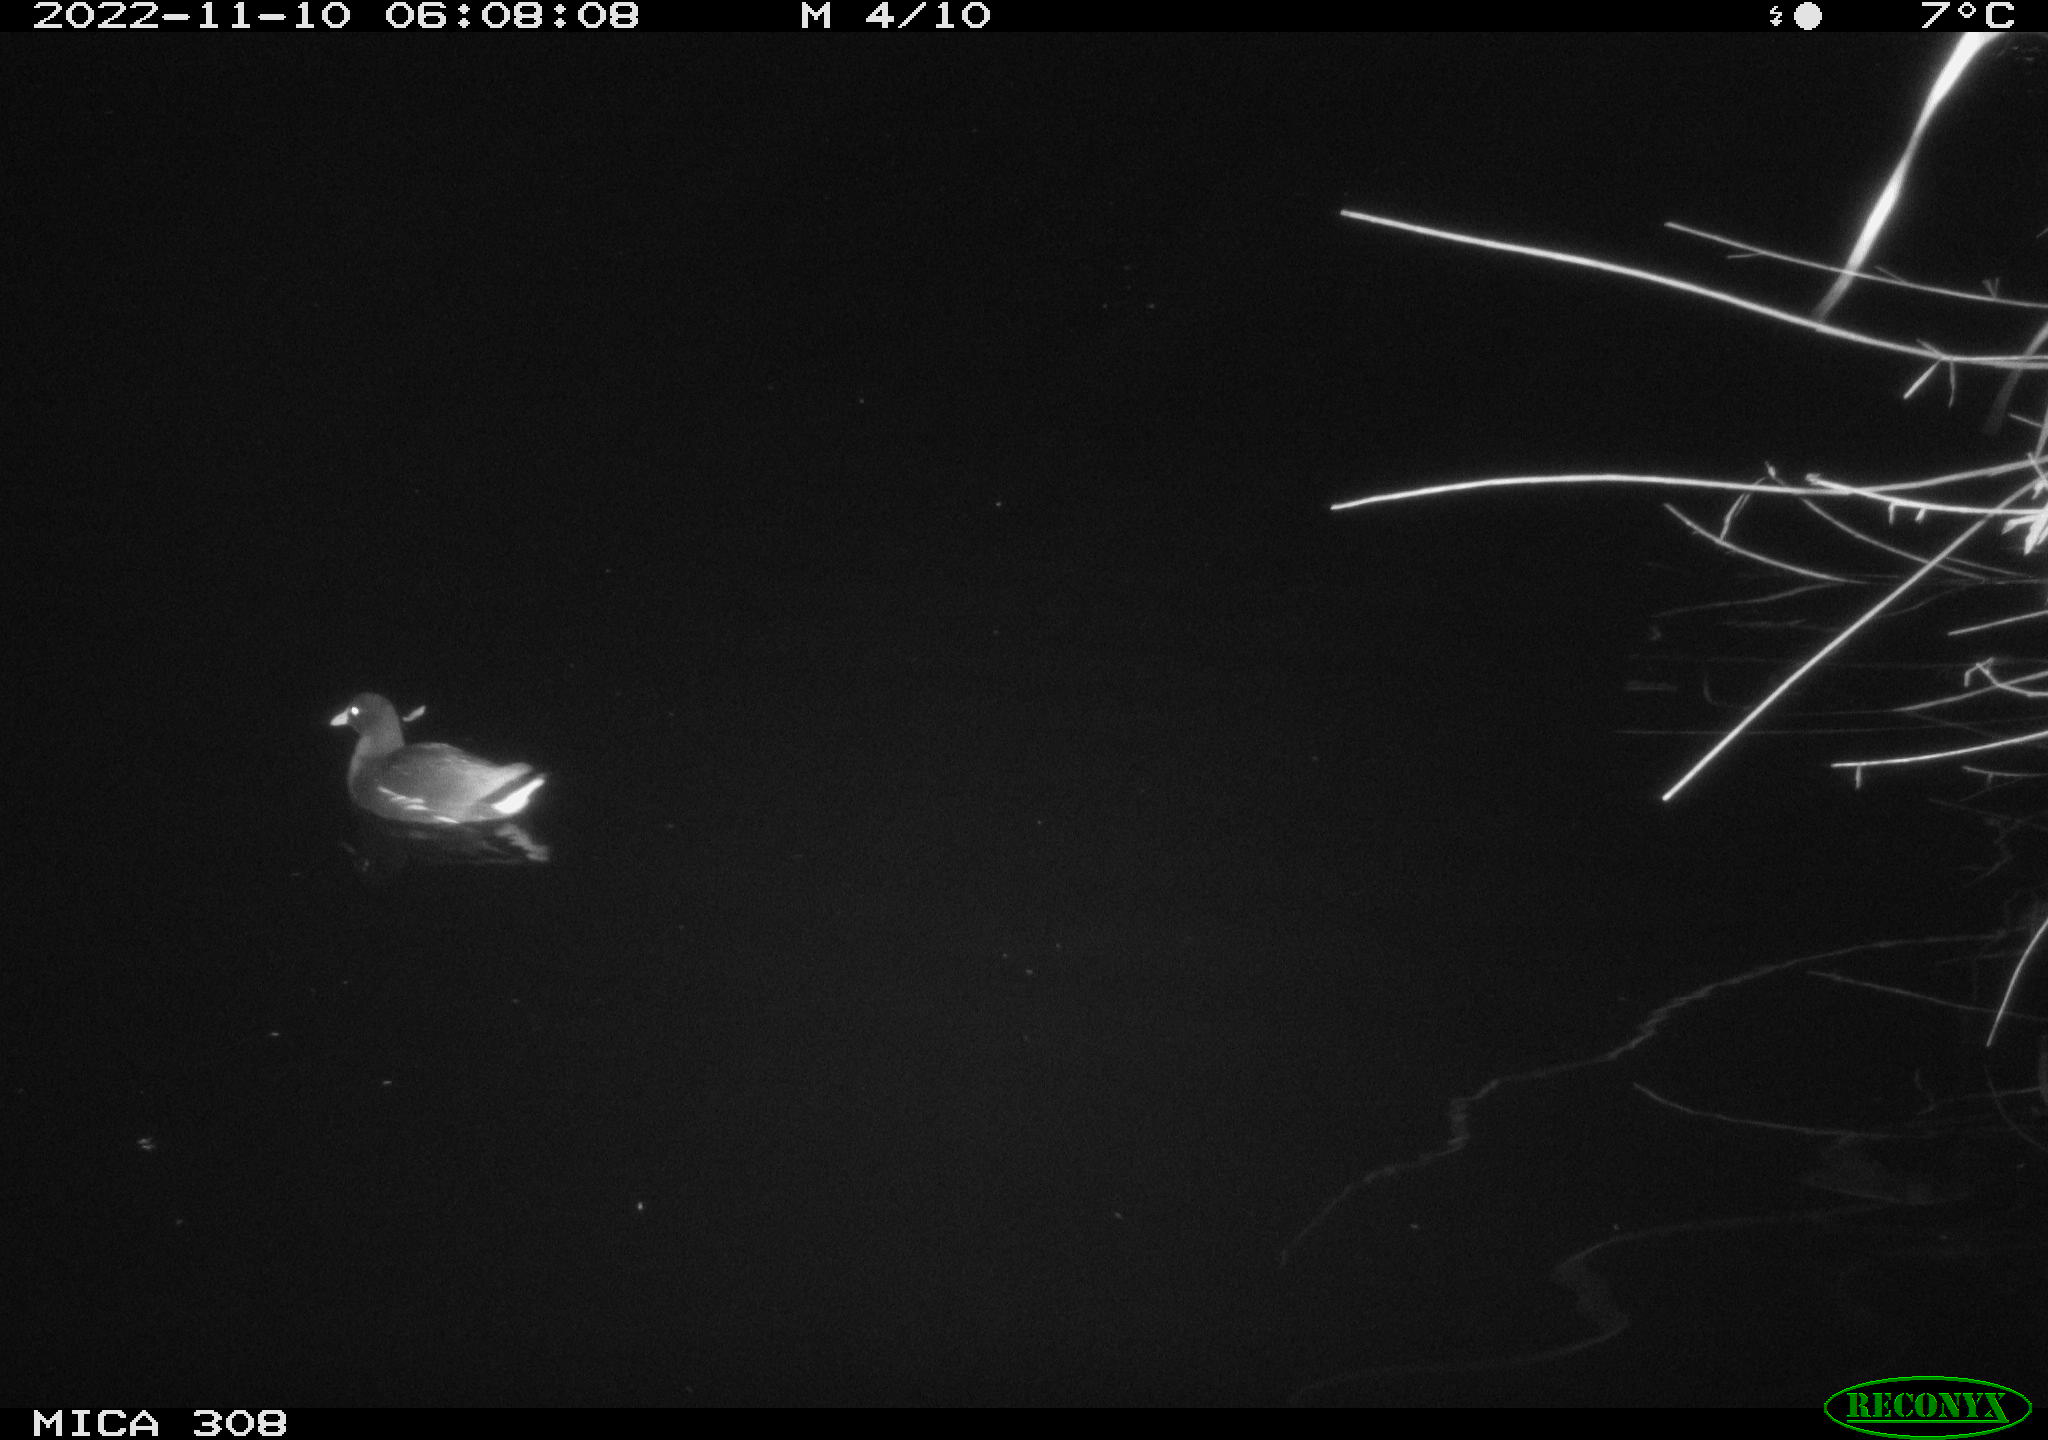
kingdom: Animalia
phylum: Chordata
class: Aves
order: Gruiformes
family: Rallidae
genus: Gallinula
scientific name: Gallinula chloropus
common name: Common moorhen
